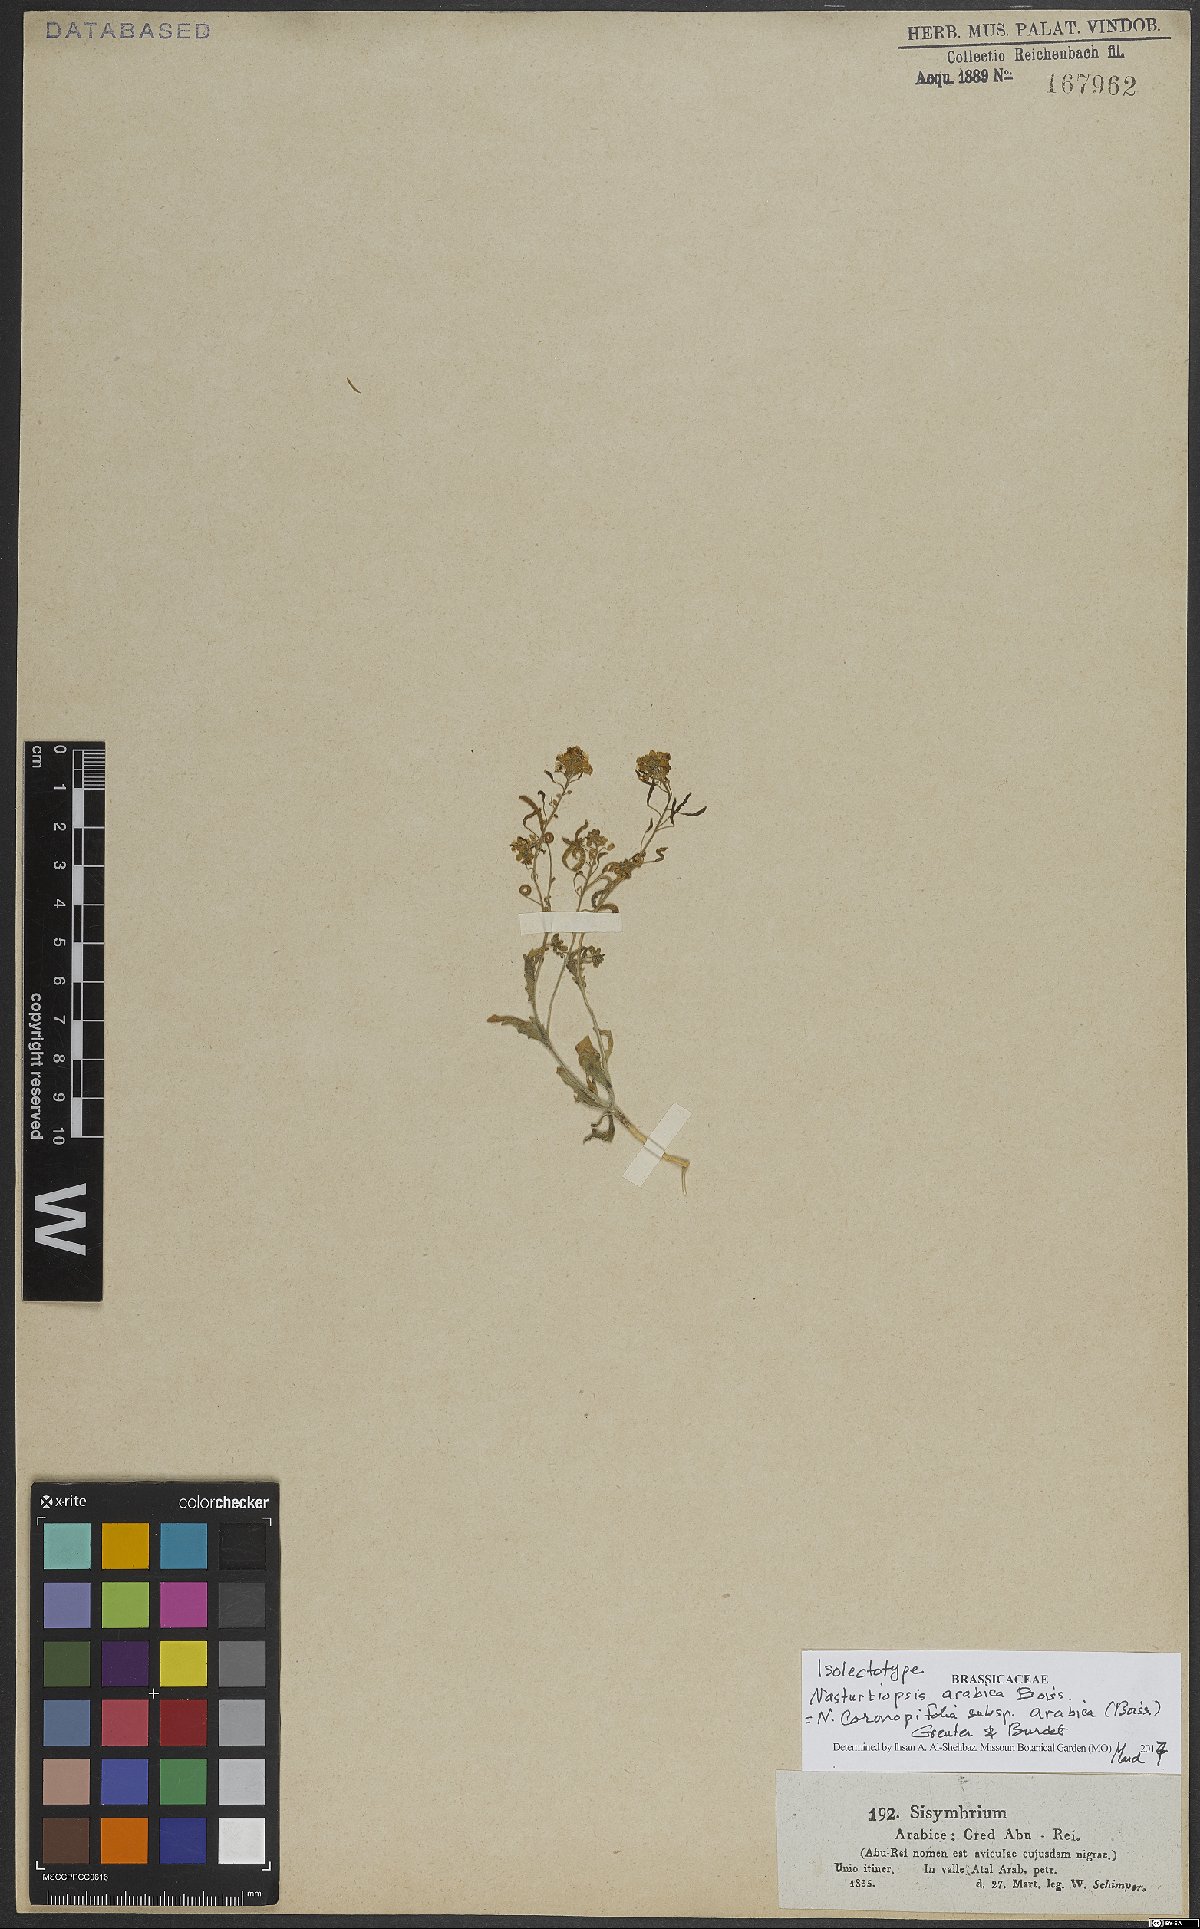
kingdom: Plantae
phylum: Tracheophyta
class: Magnoliopsida
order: Brassicales
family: Brassicaceae
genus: Nasturtiopsis
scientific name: Nasturtiopsis coronopifolia
